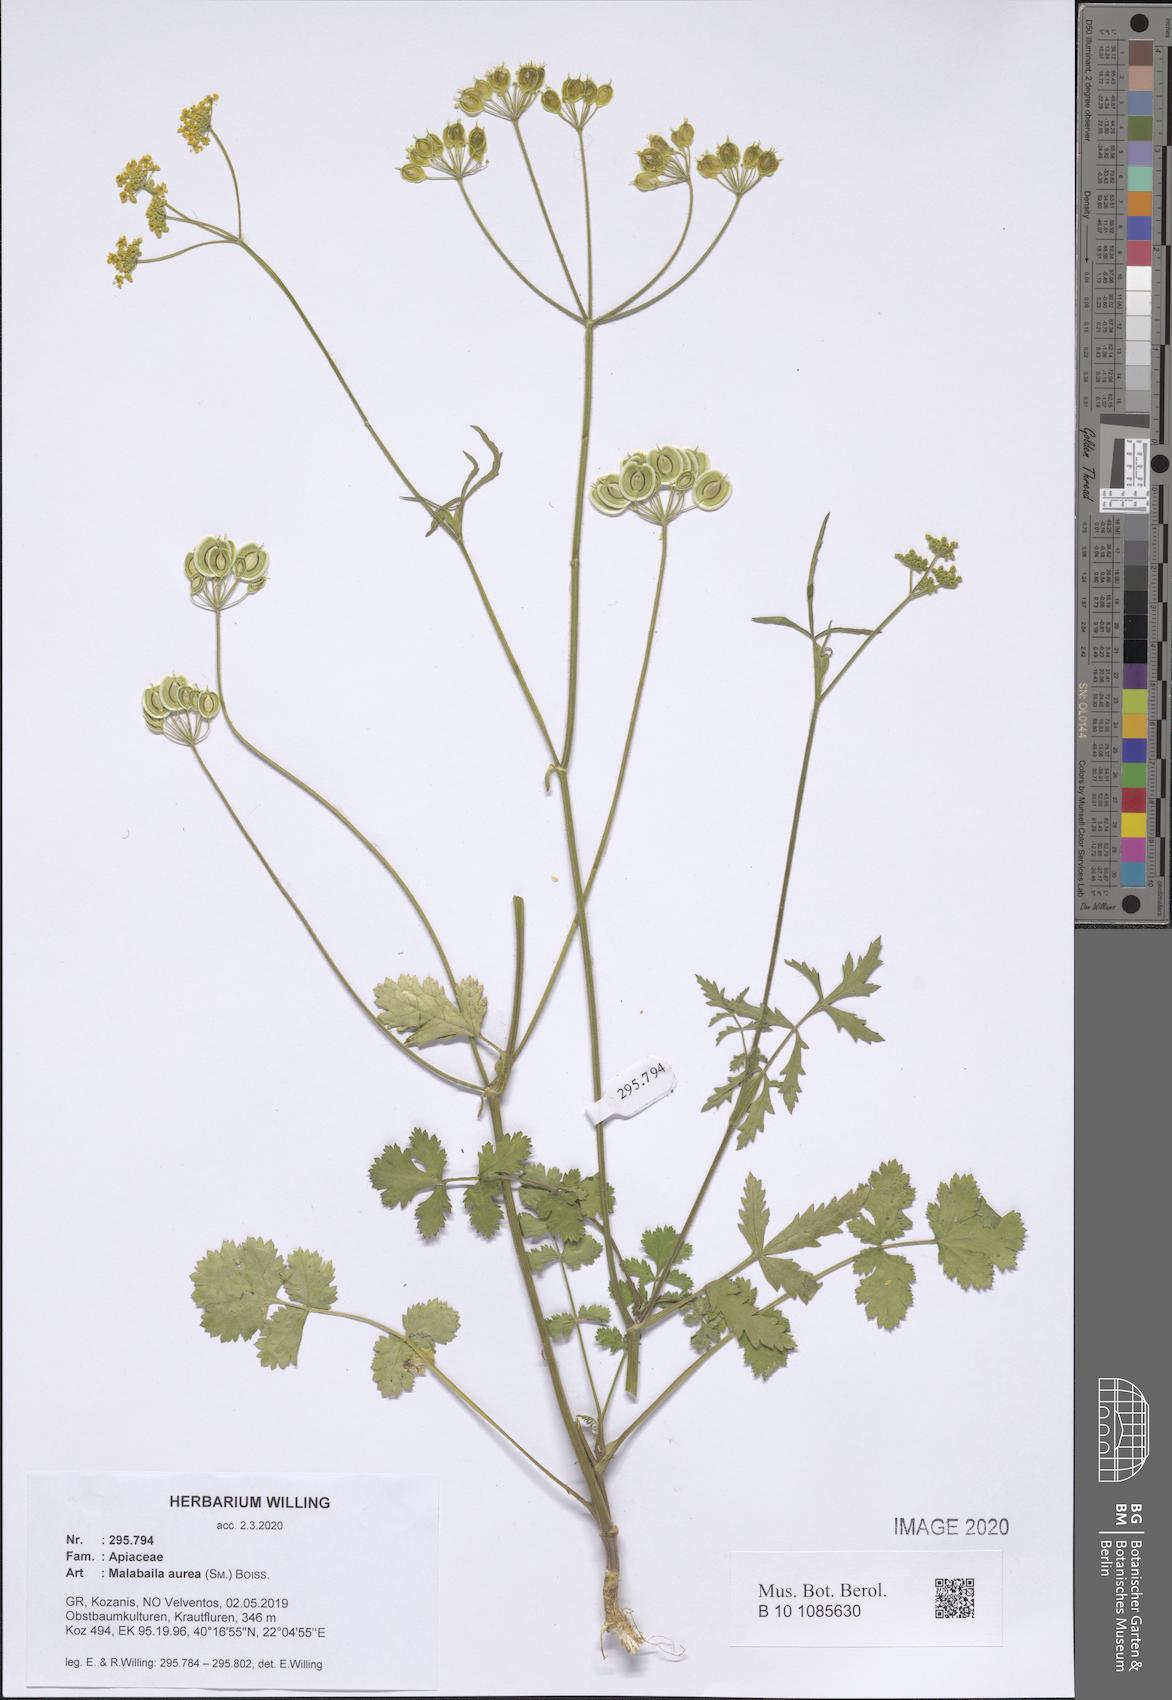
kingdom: Plantae
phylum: Tracheophyta
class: Magnoliopsida
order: Apiales
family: Apiaceae
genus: Leiotulus
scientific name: Leiotulus aureus
